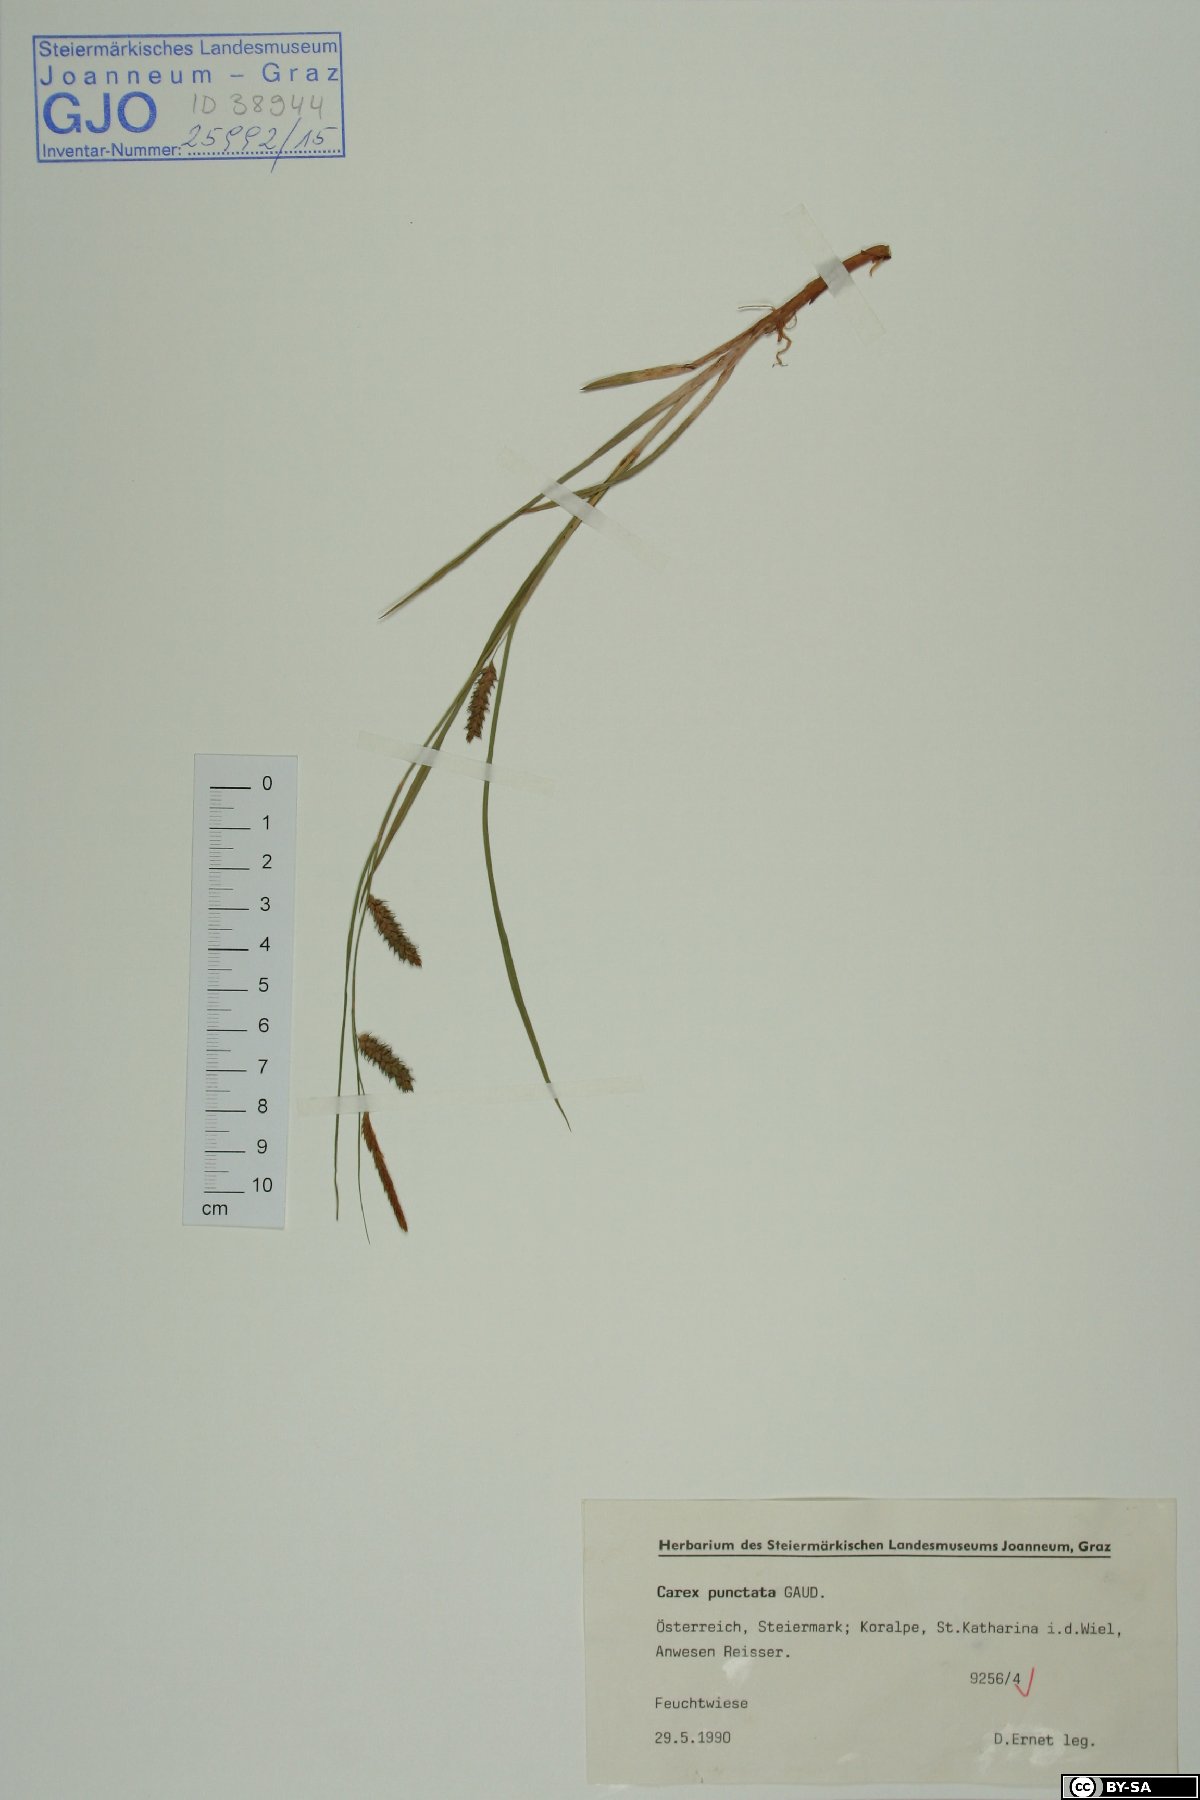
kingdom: Plantae
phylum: Tracheophyta
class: Liliopsida
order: Poales
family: Cyperaceae
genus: Carex
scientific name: Carex punctata
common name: Dotted sedge
